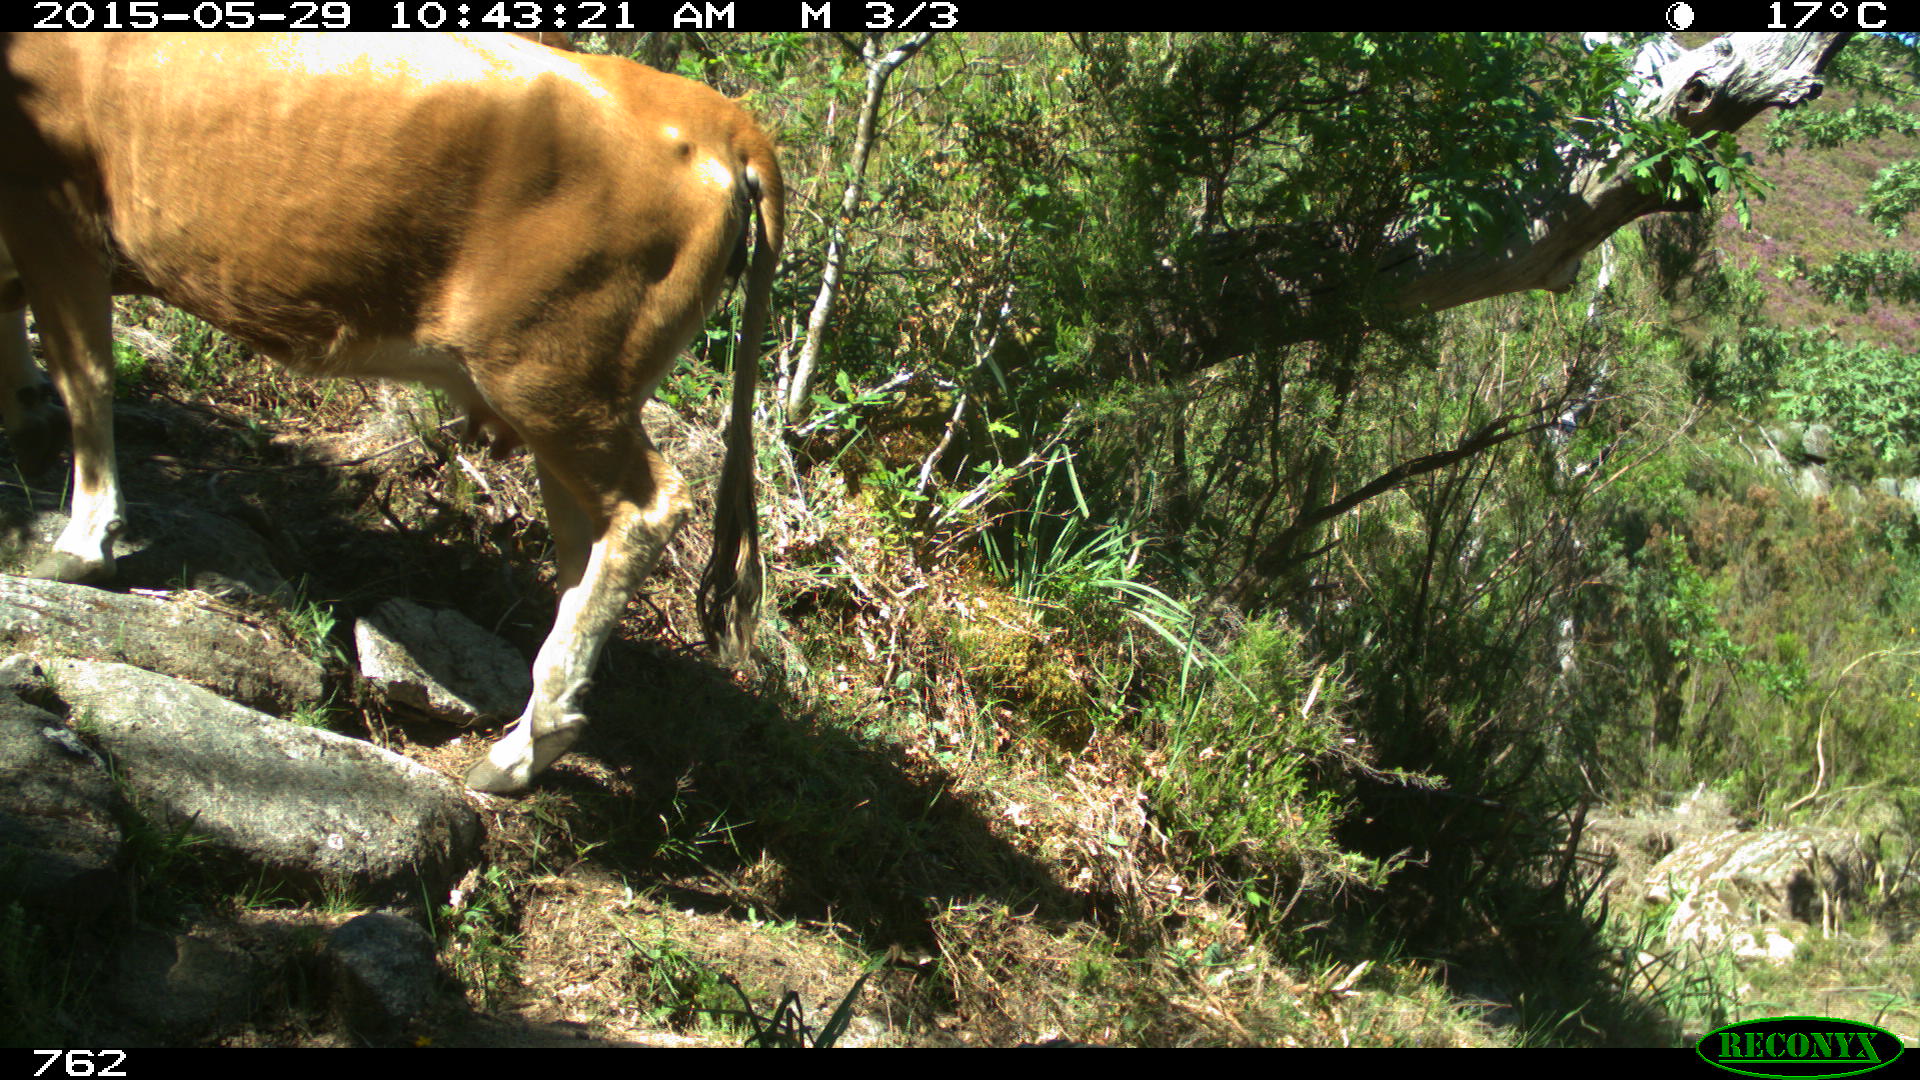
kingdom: Animalia
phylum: Chordata
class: Mammalia
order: Artiodactyla
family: Bovidae
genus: Bos
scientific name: Bos taurus
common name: Domesticated cattle
